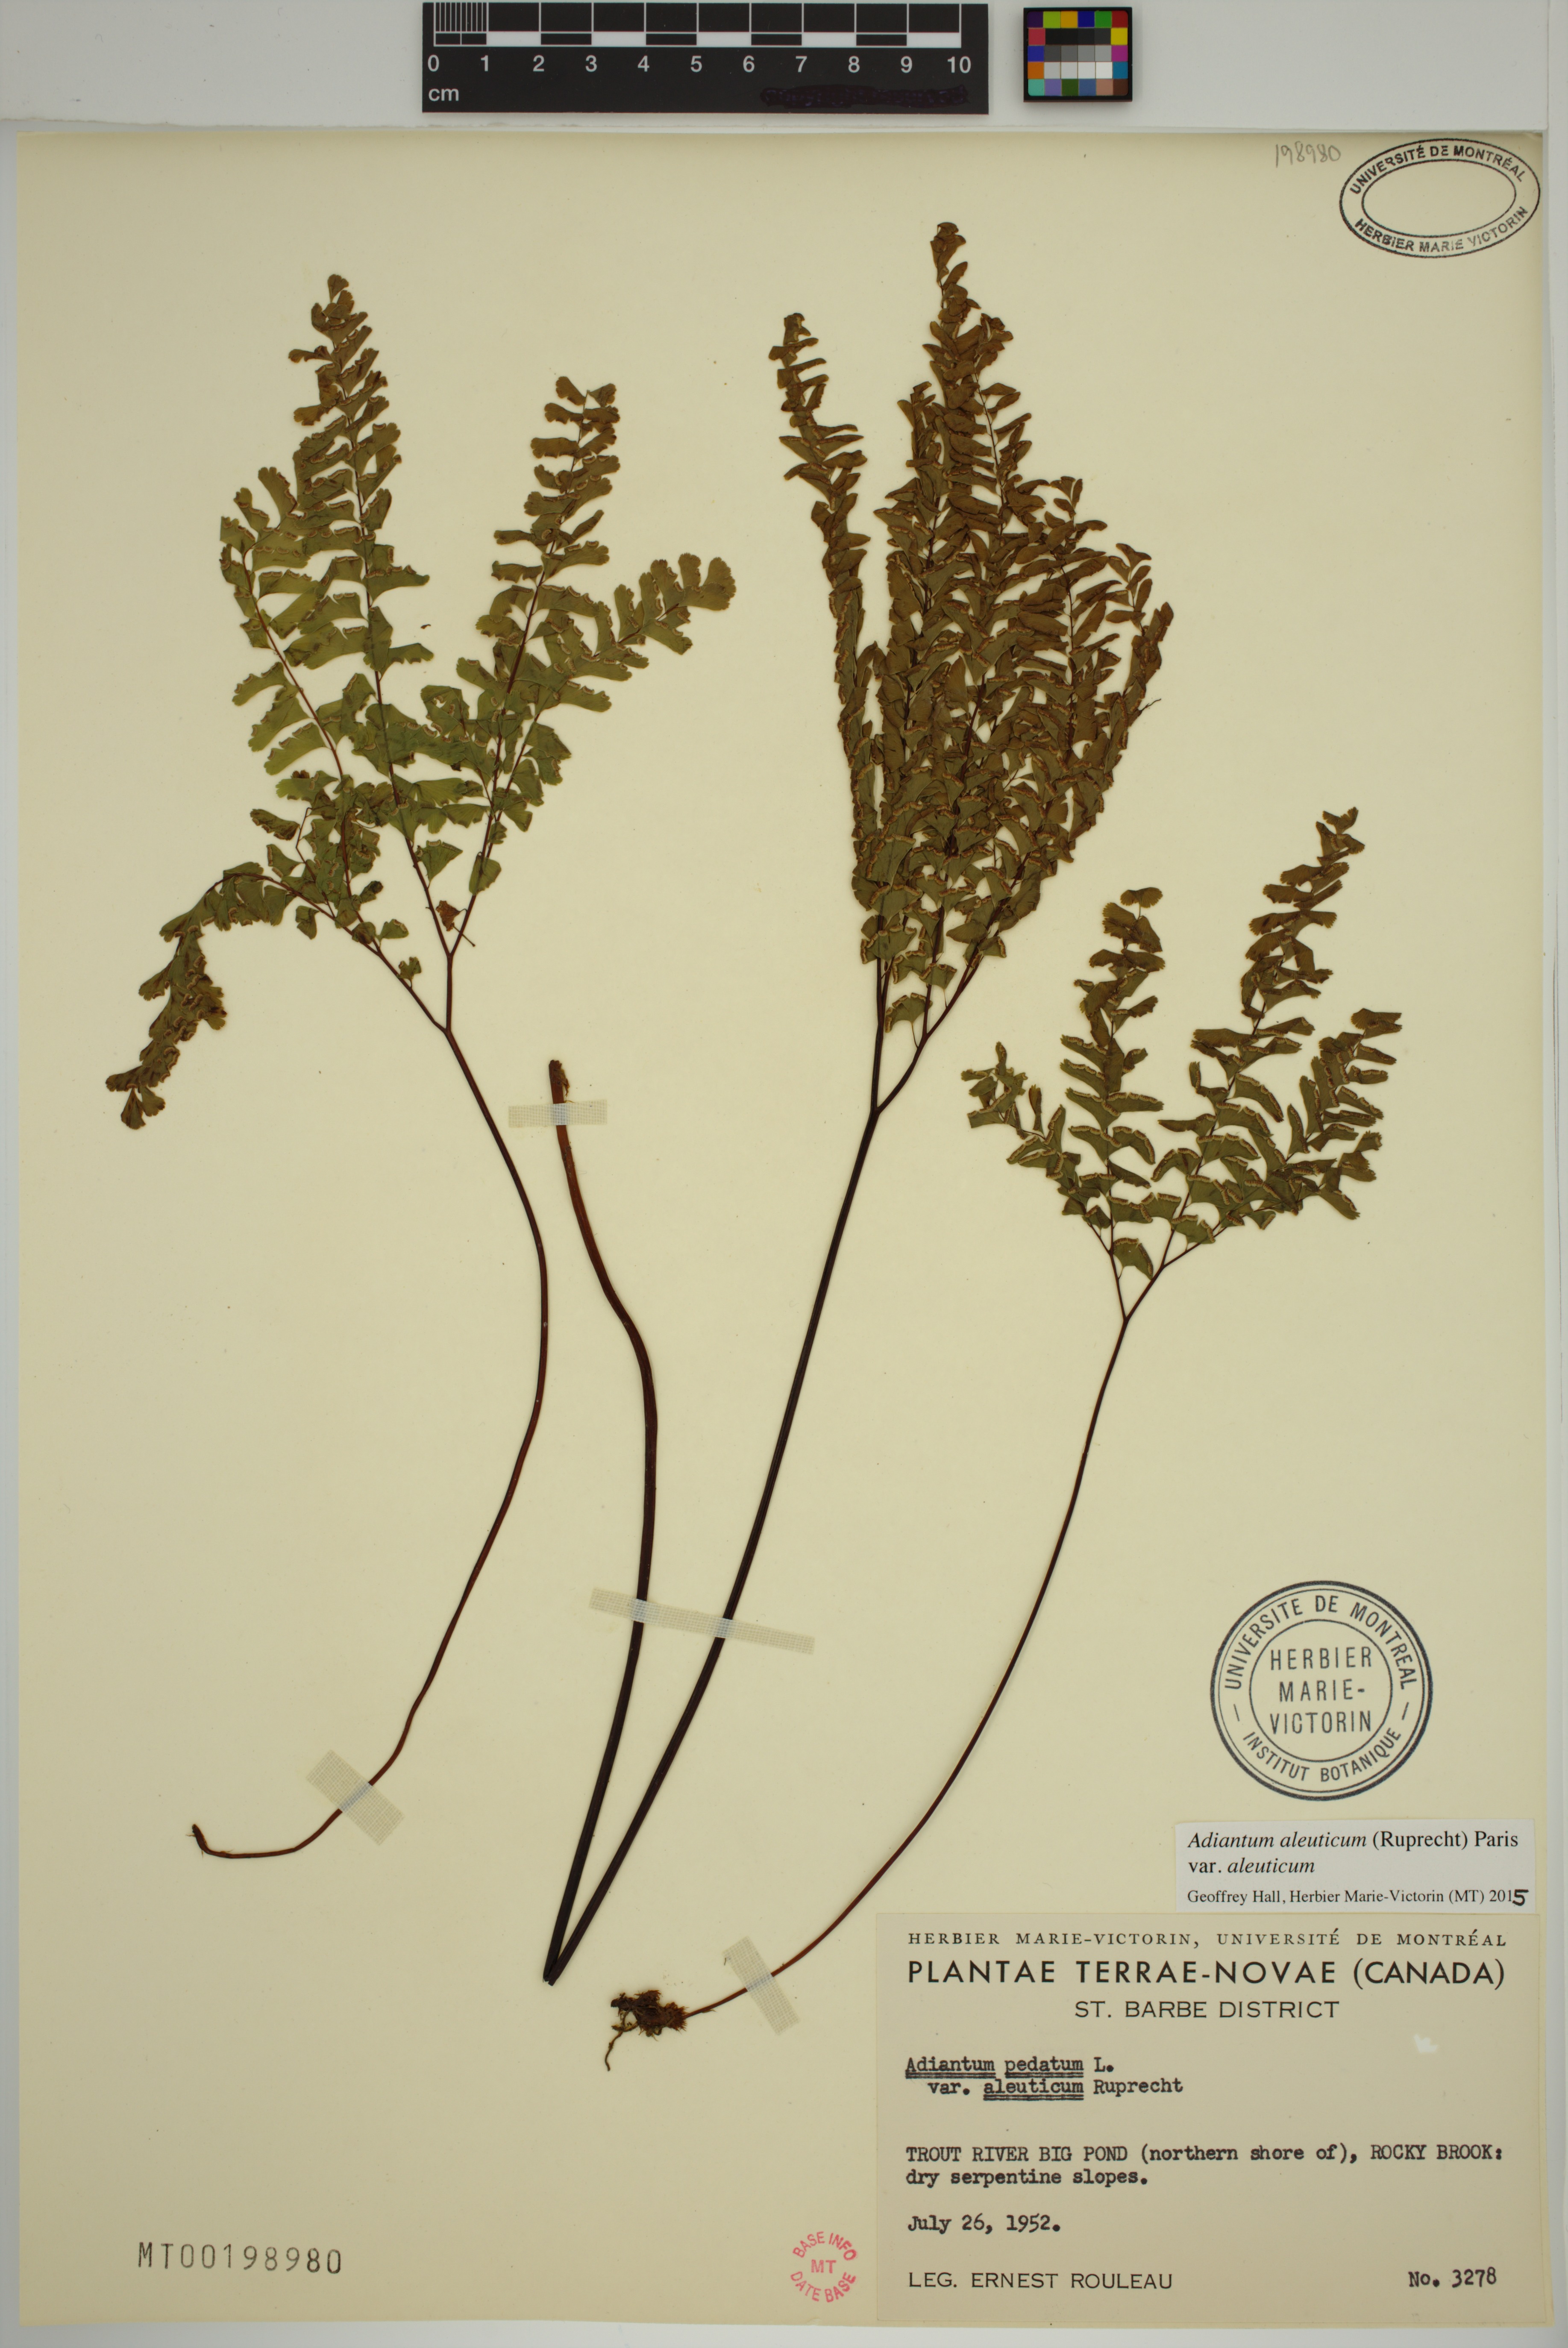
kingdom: Plantae
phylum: Tracheophyta
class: Polypodiopsida
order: Polypodiales
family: Pteridaceae
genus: Adiantum
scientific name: Adiantum aleuticum
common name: Aleutian maidenhair fern
